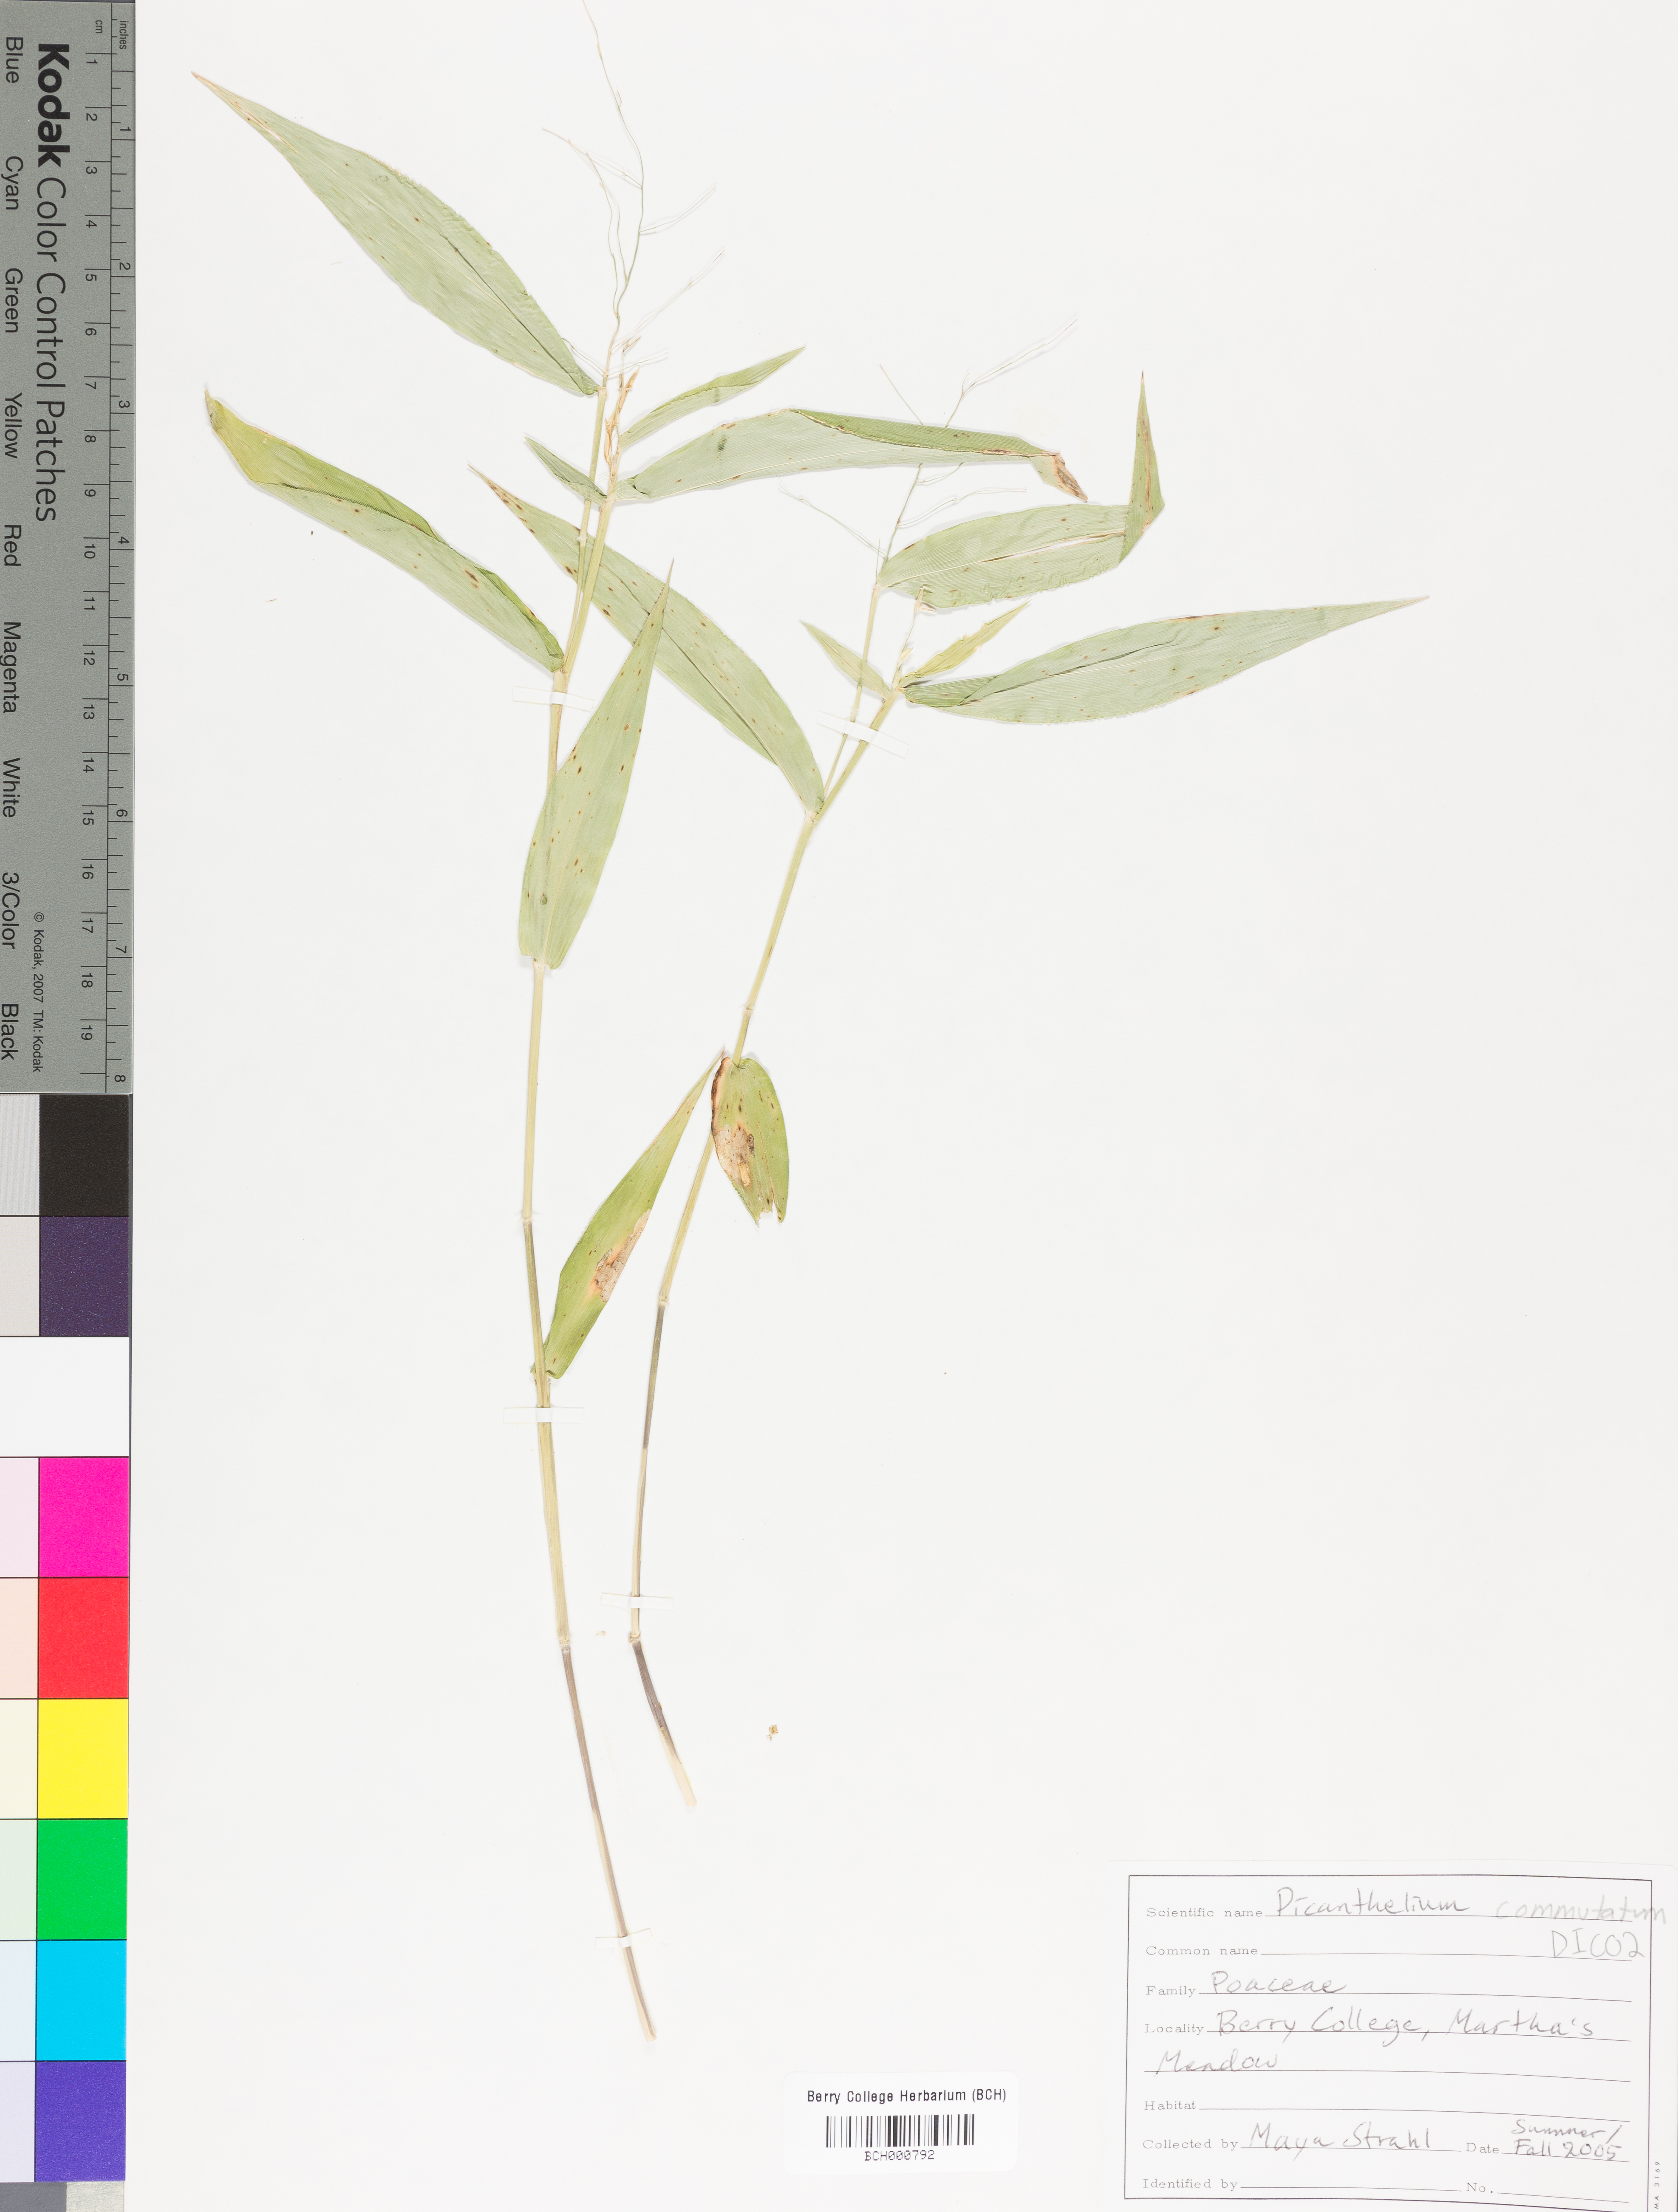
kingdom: Plantae
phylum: Tracheophyta
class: Liliopsida
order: Poales
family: Poaceae
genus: Dichanthelium
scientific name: Dichanthelium commutatum
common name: Variable witchgrass
